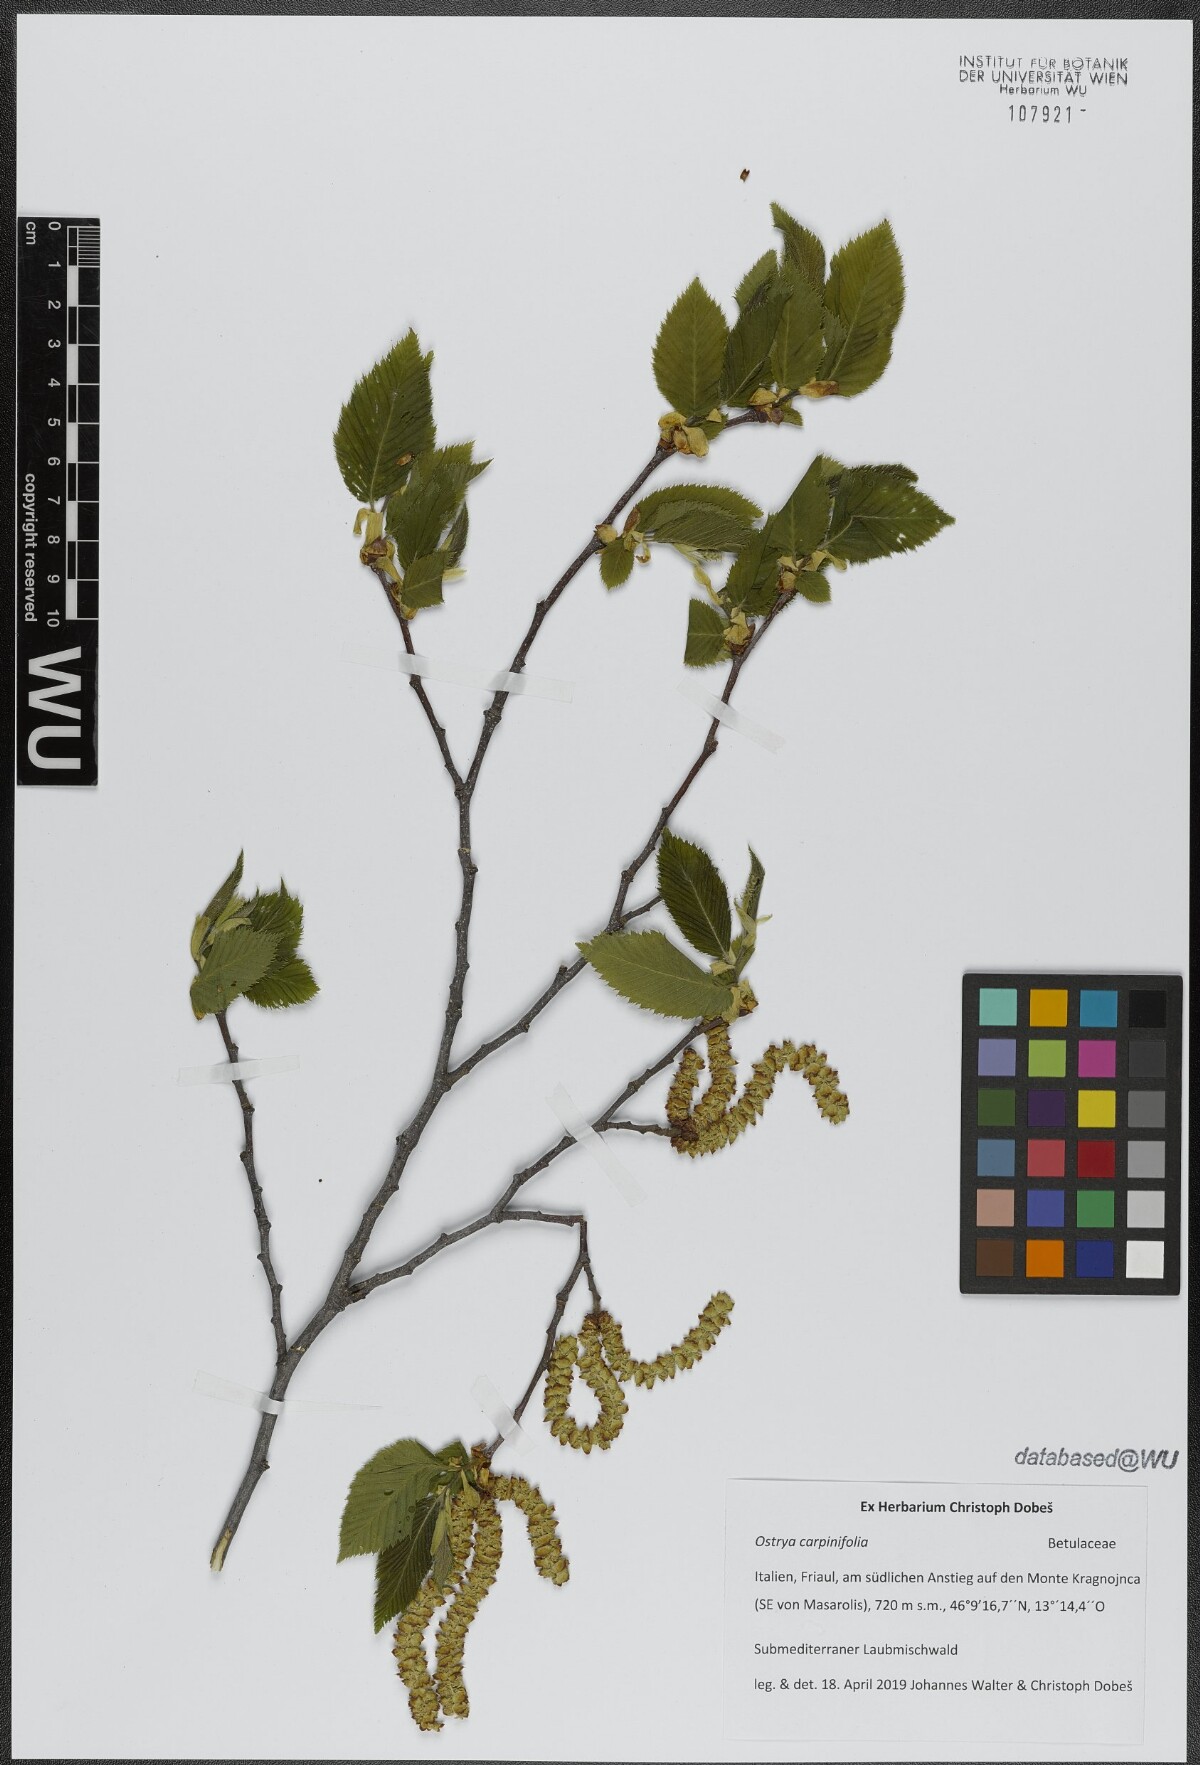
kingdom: Plantae
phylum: Tracheophyta
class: Magnoliopsida
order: Fagales
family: Betulaceae
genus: Ostrya
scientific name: Ostrya carpinifolia
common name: European hop-hornbeam
